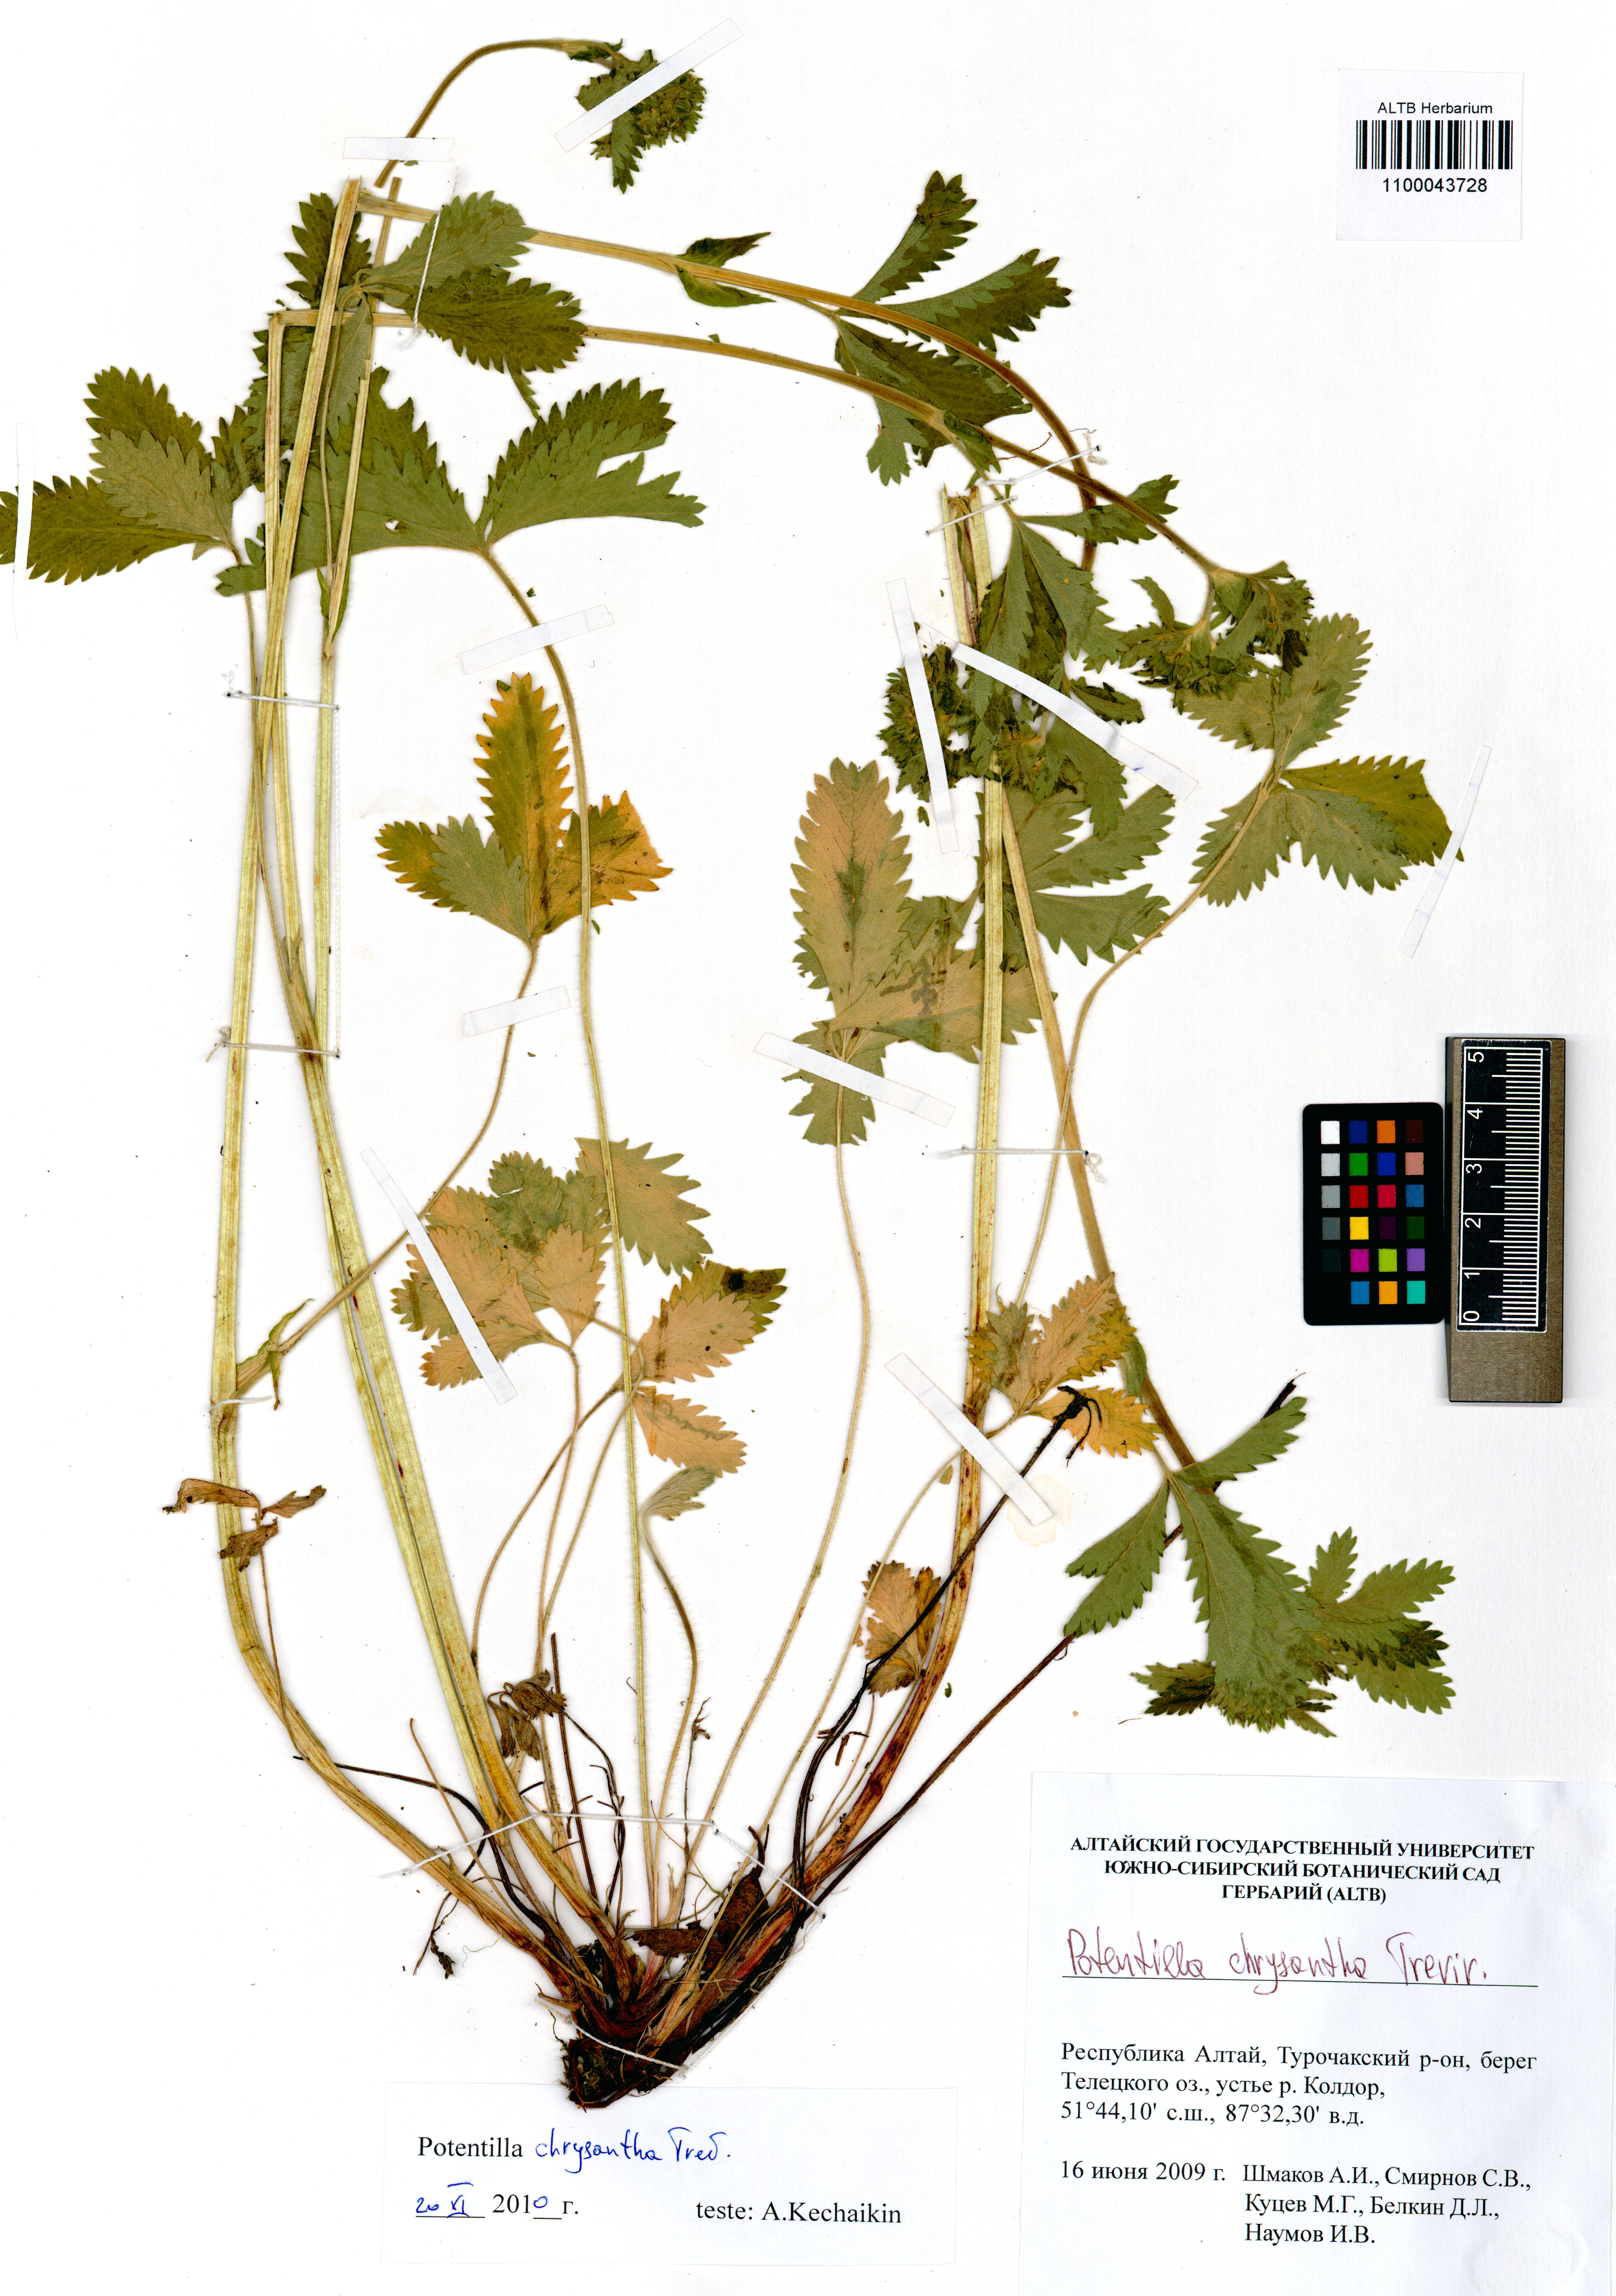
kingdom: Plantae
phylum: Tracheophyta
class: Magnoliopsida
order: Rosales
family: Rosaceae
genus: Potentilla
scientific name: Potentilla chrysantha
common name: Thuringian cinquefoil
